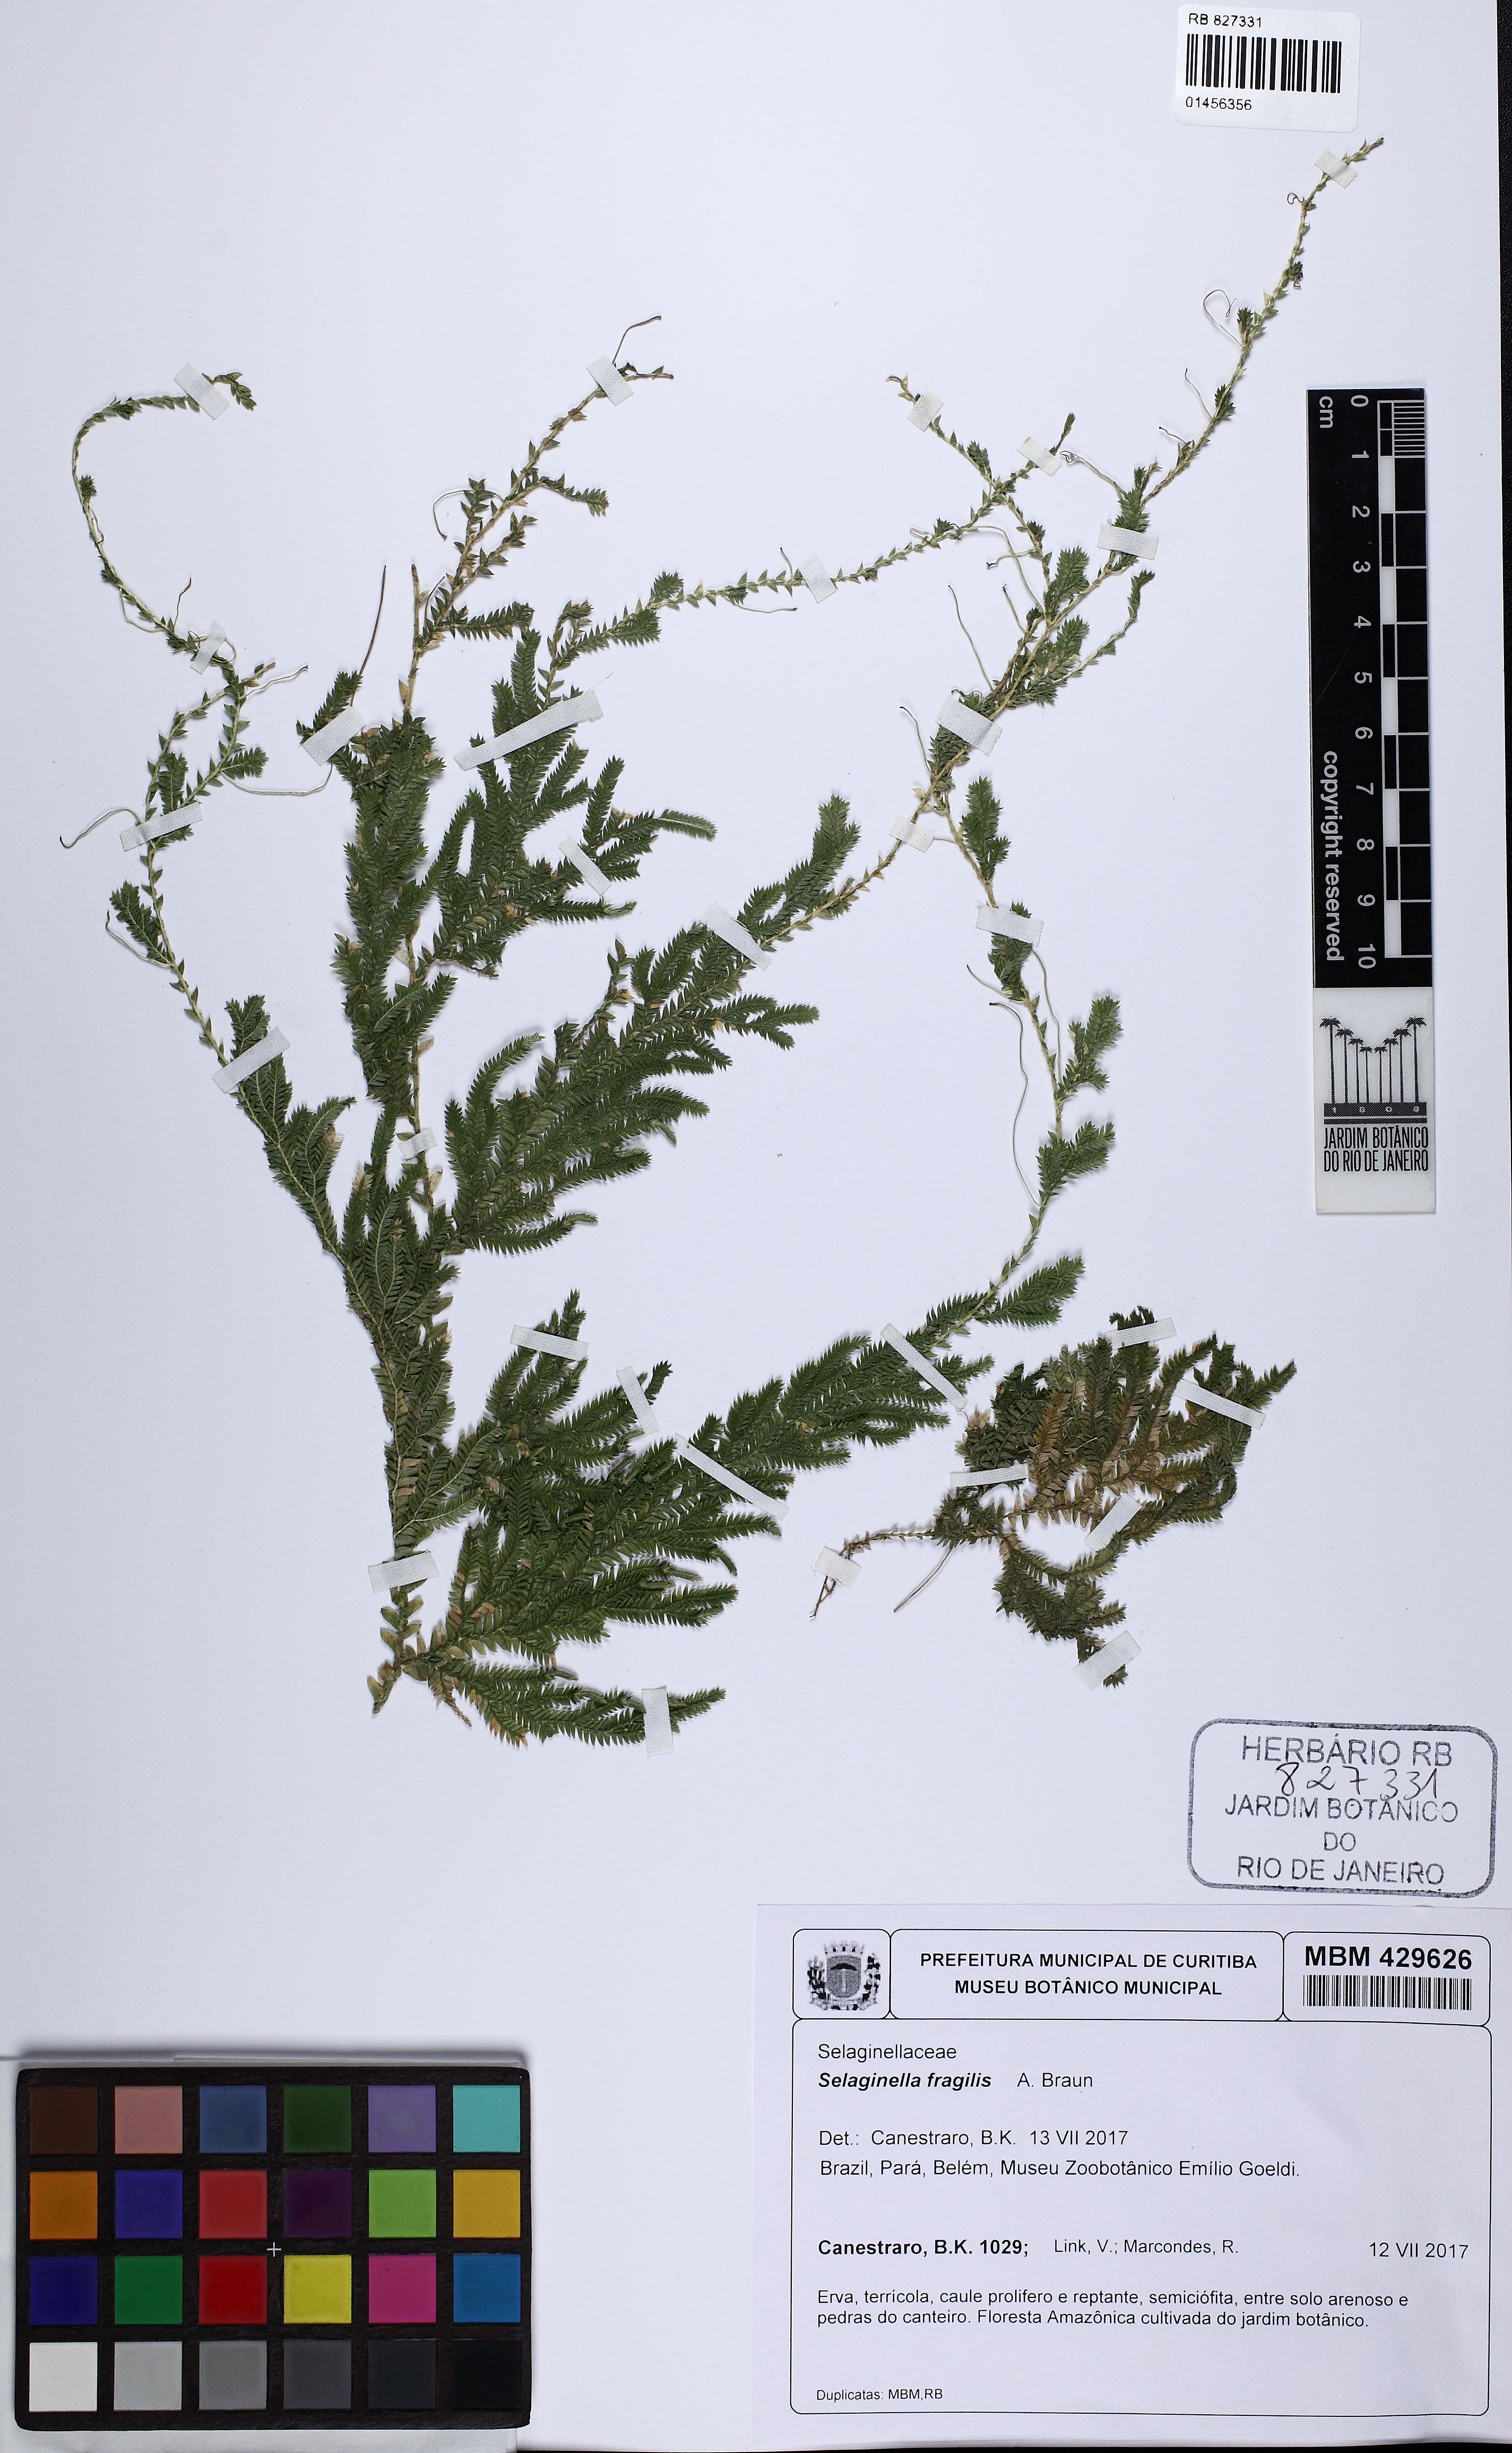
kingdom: Plantae
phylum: Tracheophyta
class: Lycopodiopsida
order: Selaginellales
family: Selaginellaceae
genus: Selaginella
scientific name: Selaginella fragilis
